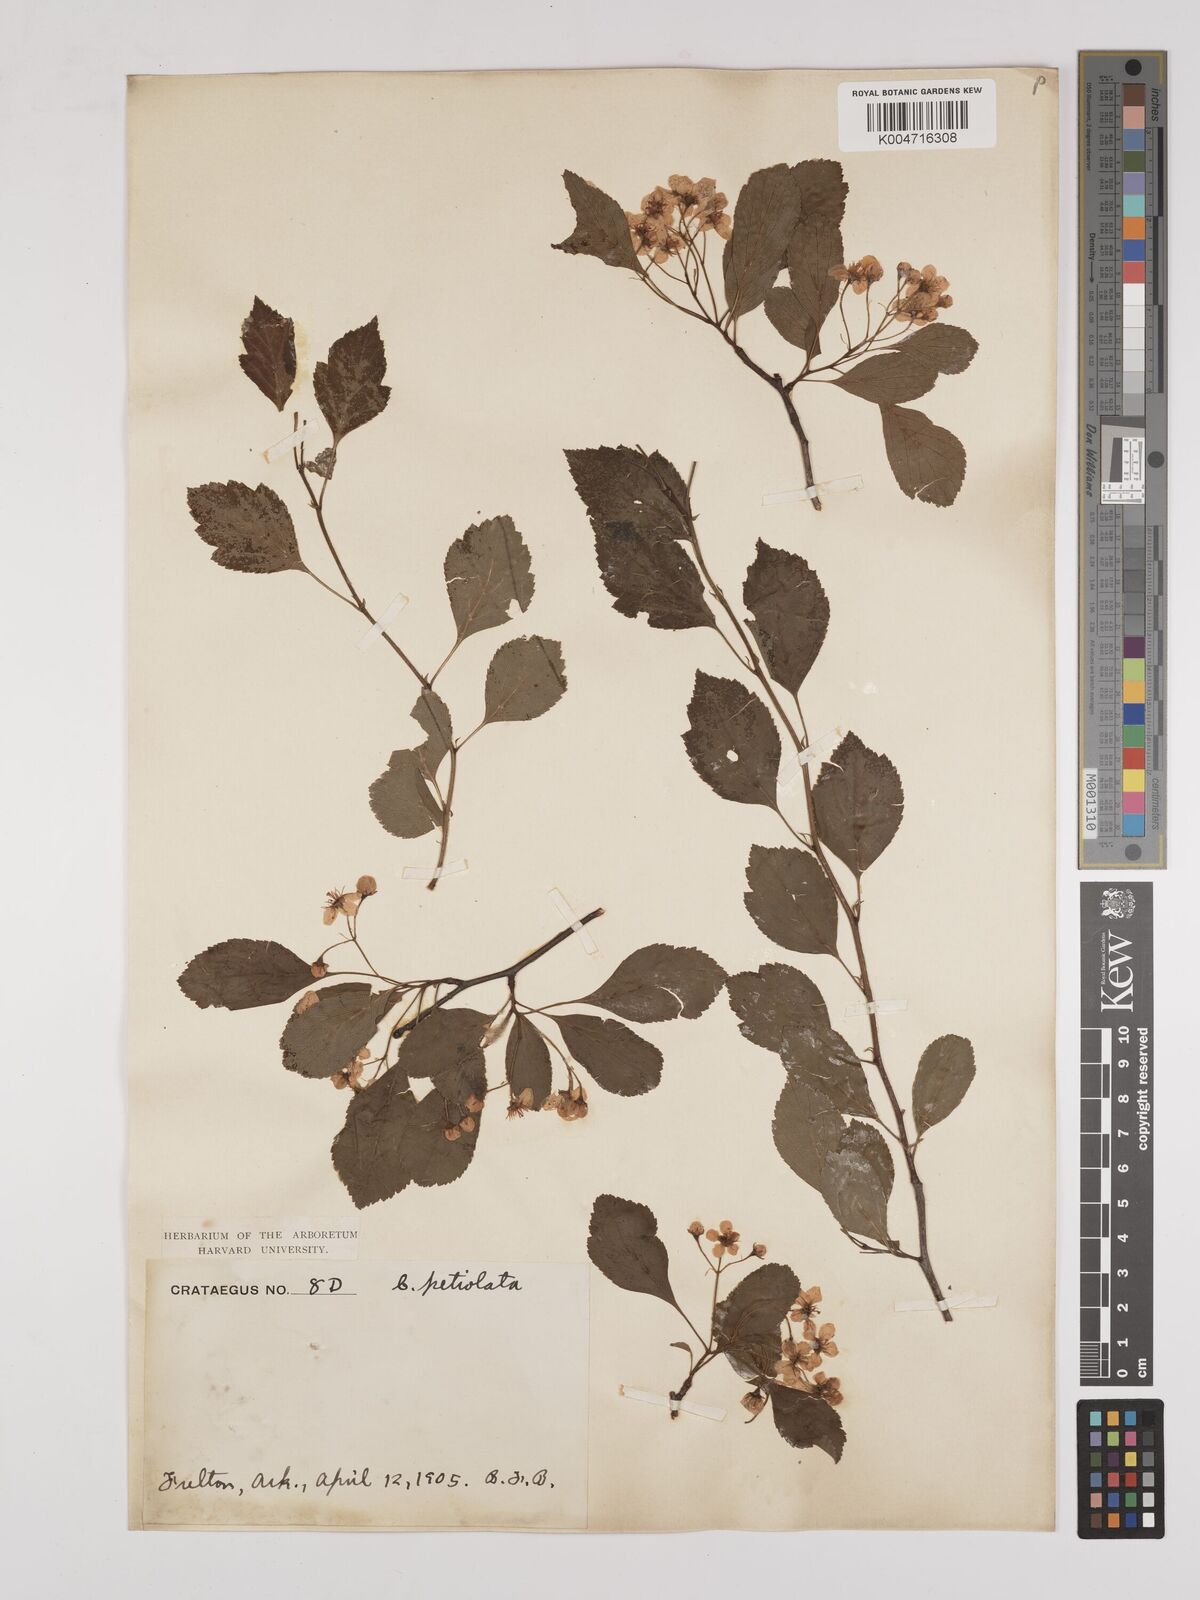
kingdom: Plantae
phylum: Tracheophyta
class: Magnoliopsida
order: Rosales
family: Rosaceae
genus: Crataegus
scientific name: Crataegus petiolata
